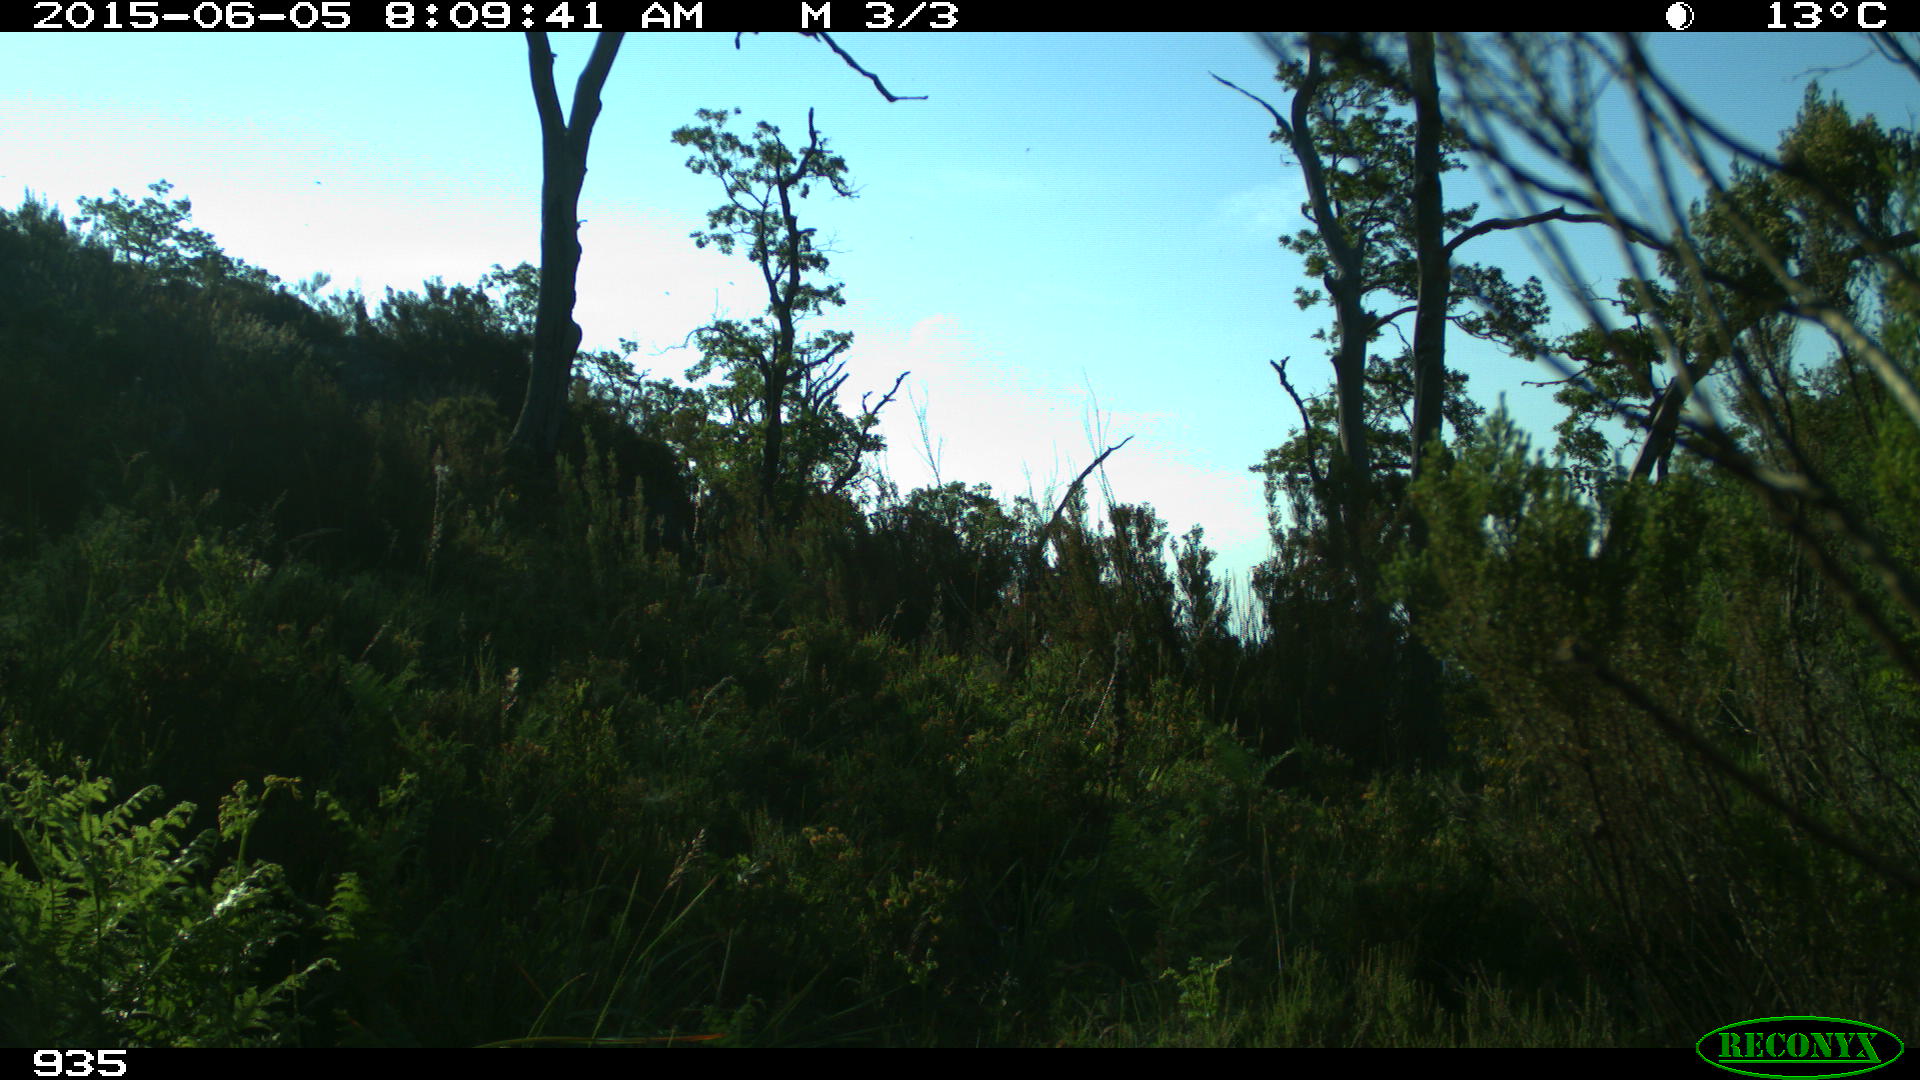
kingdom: Animalia
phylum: Chordata
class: Mammalia
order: Artiodactyla
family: Bovidae
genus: Bos
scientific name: Bos taurus
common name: Domesticated cattle
